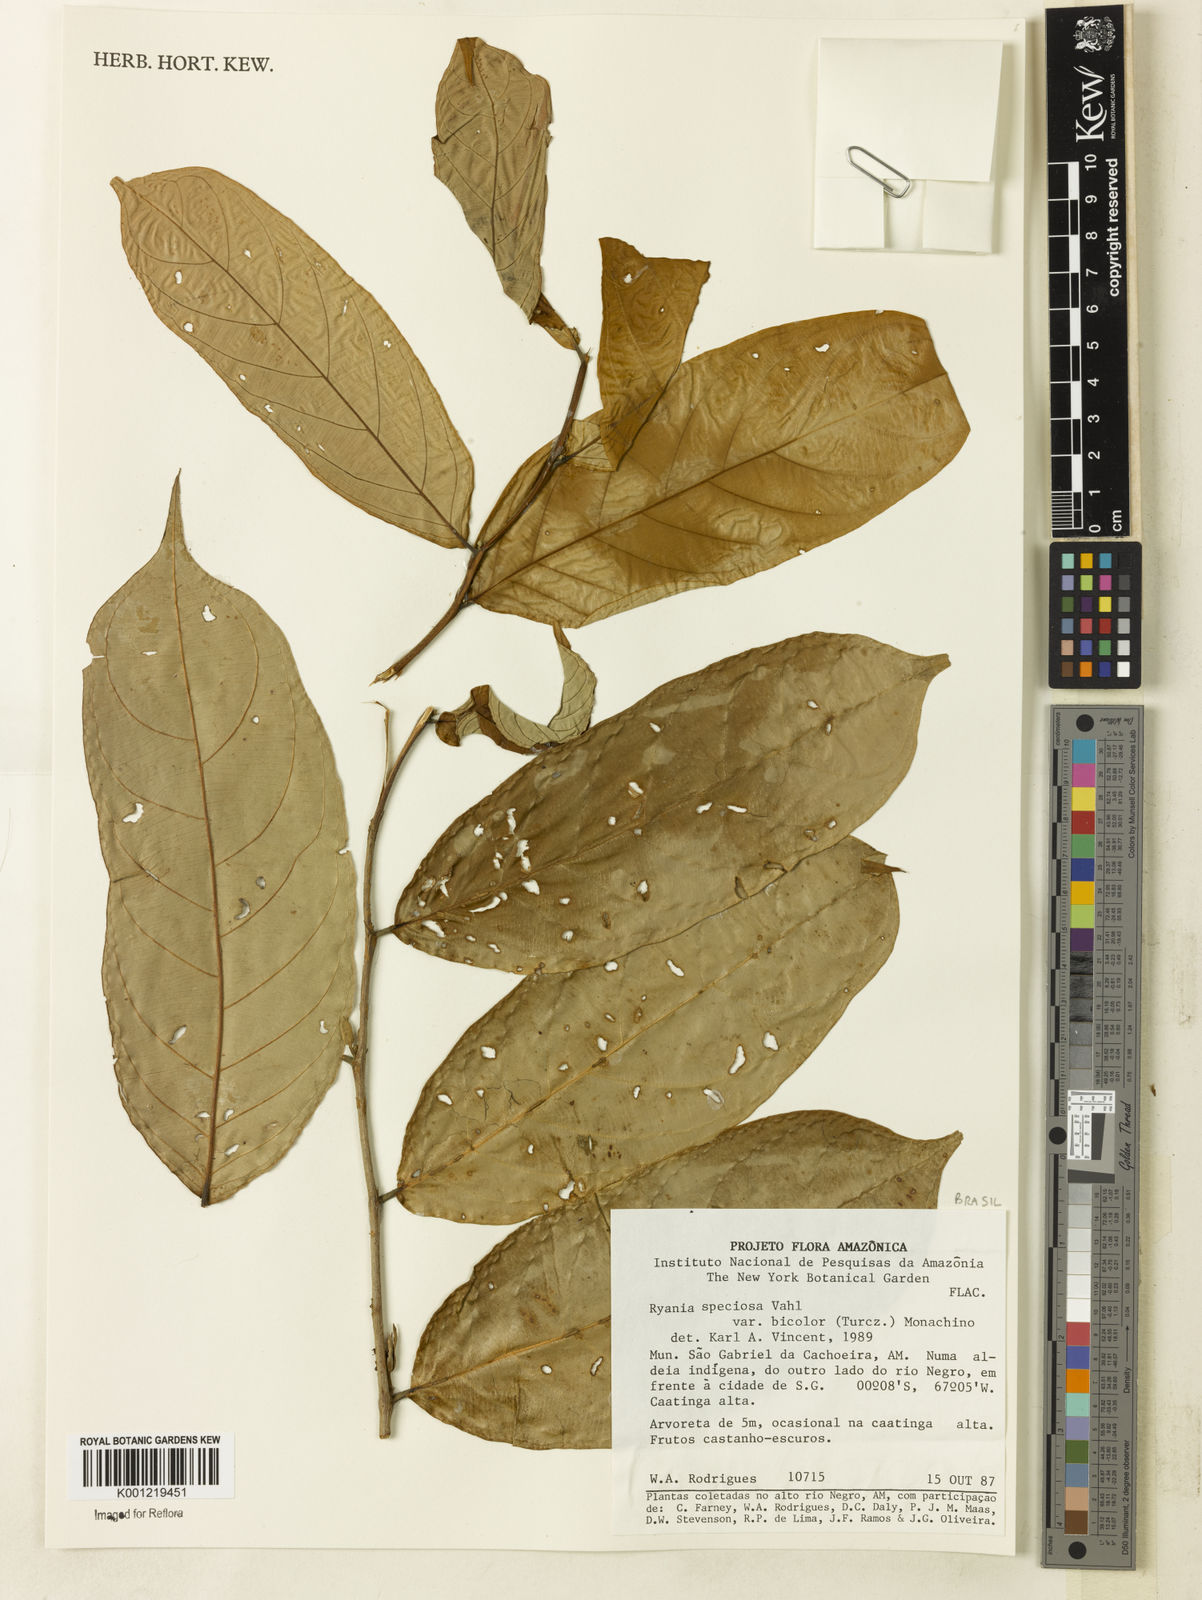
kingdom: Plantae
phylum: Tracheophyta
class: Magnoliopsida
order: Malpighiales
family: Salicaceae
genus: Ryania
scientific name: Ryania speciosa
